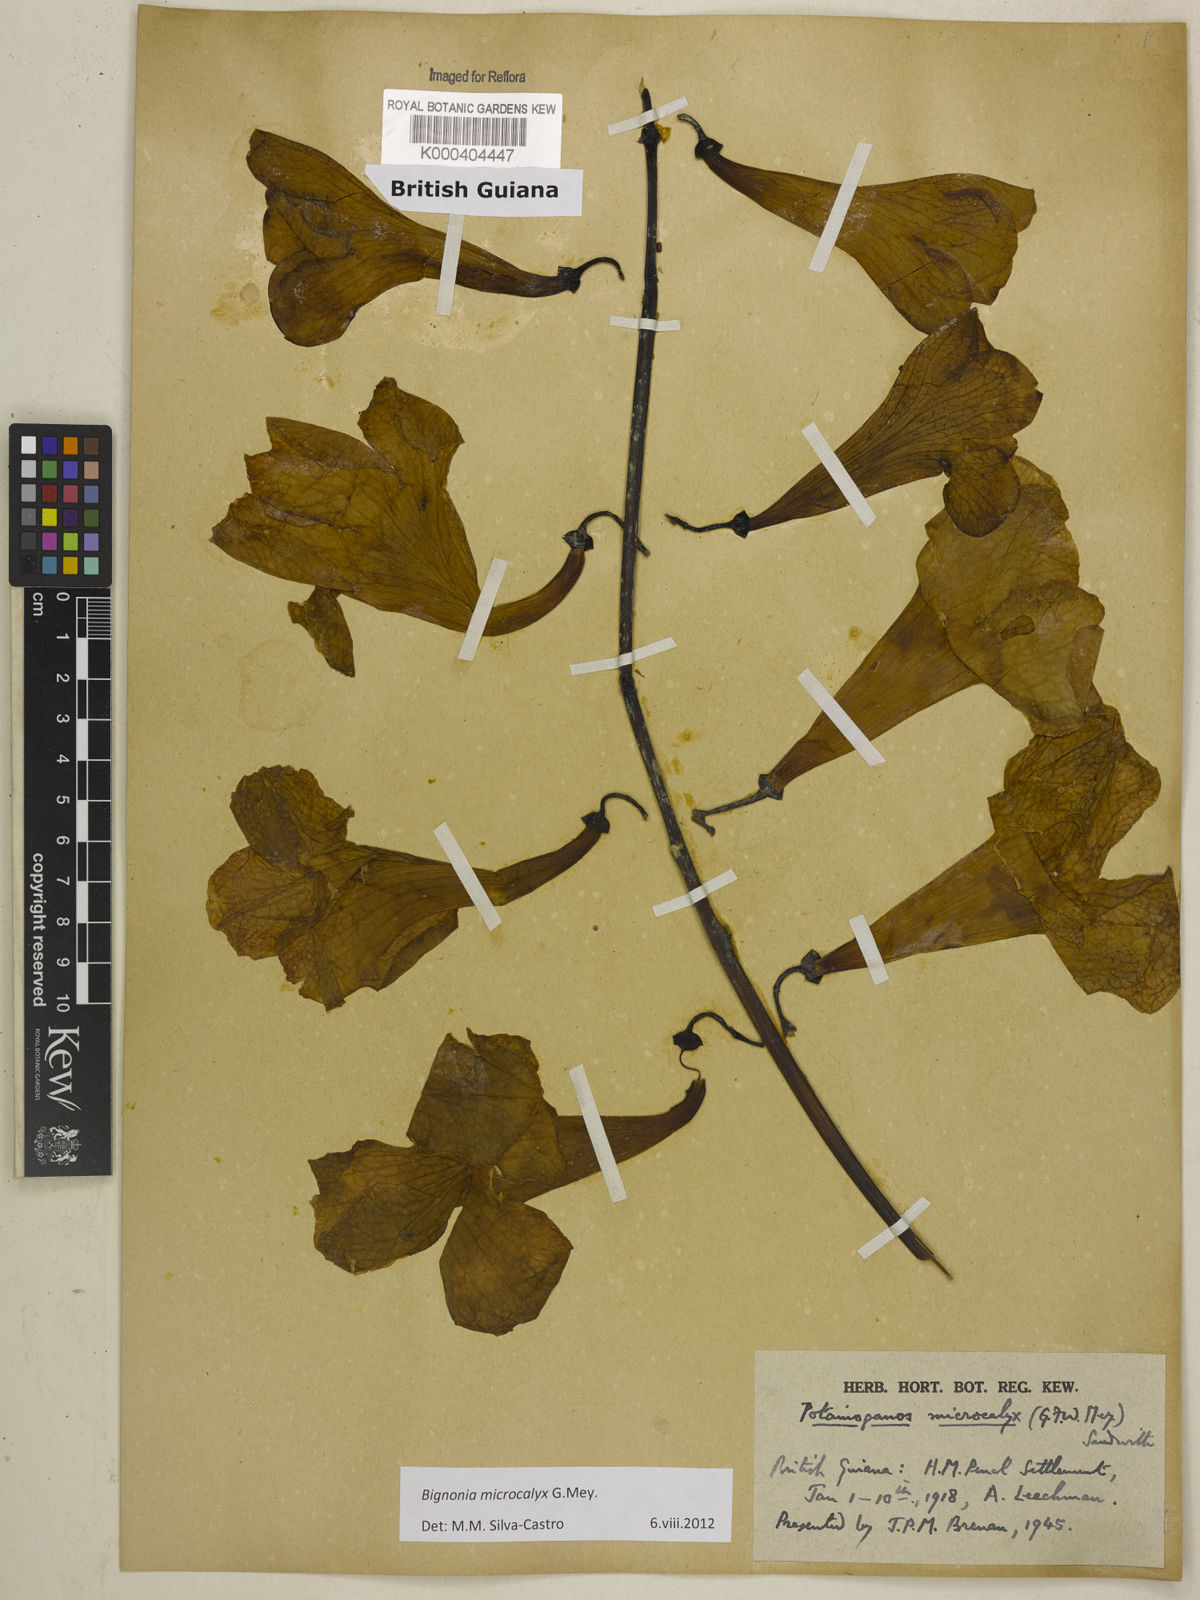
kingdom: Plantae
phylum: Tracheophyta
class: Magnoliopsida
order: Lamiales
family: Bignoniaceae
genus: Bignonia
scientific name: Bignonia microcalyx
